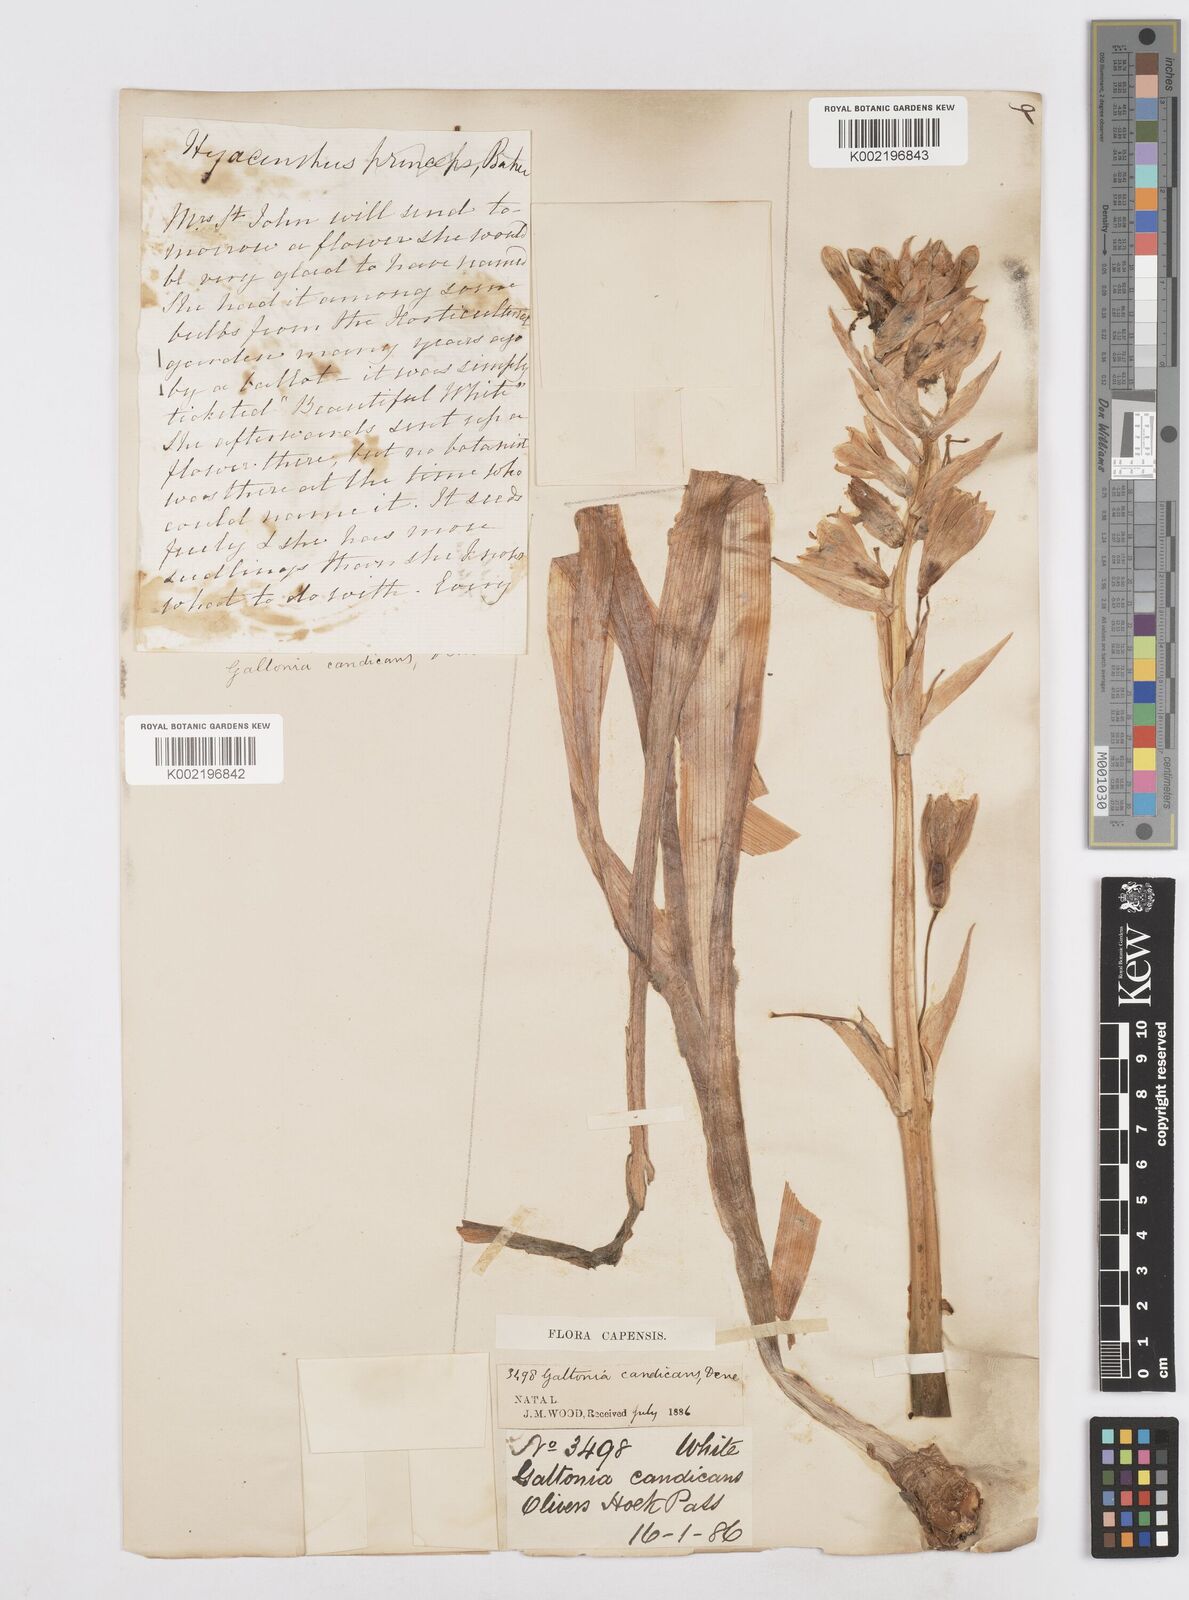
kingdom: Plantae
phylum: Tracheophyta
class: Liliopsida
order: Asparagales
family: Asparagaceae
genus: Ornithogalum
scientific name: Ornithogalum candicans
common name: Summer-hyacinth
